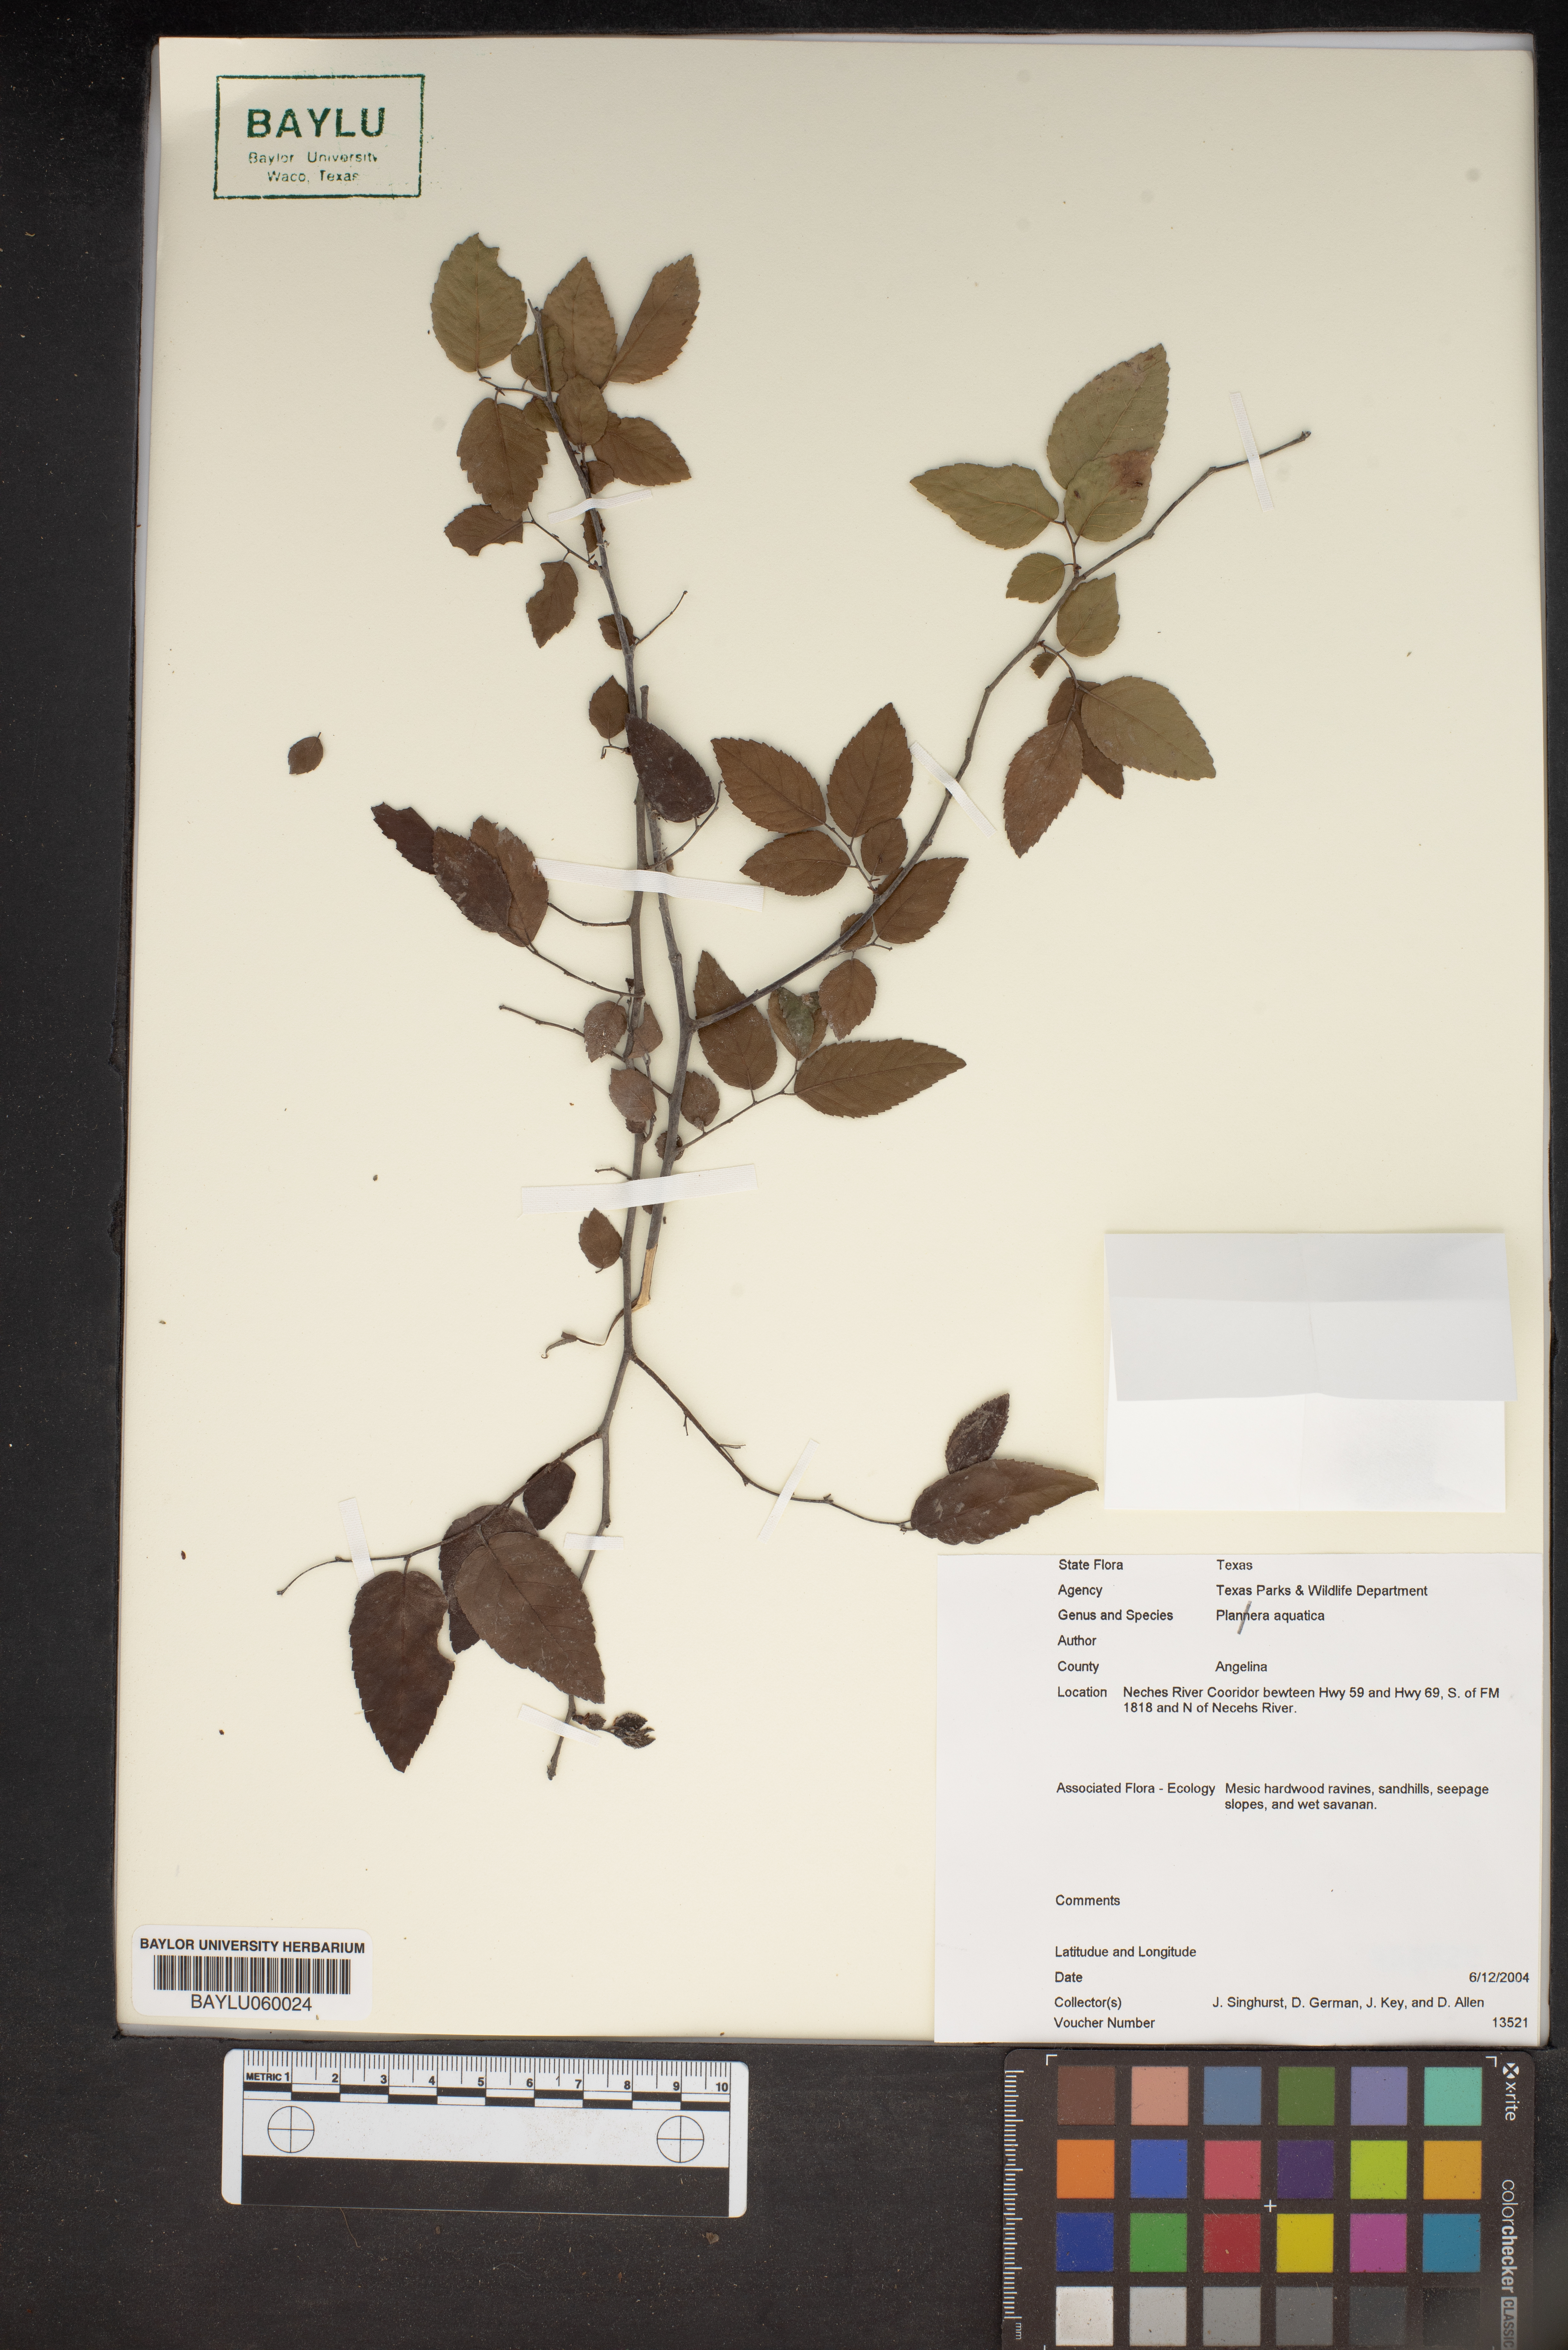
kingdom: Plantae
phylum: Tracheophyta
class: Magnoliopsida
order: Rosales
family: Ulmaceae
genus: Planera
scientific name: Planera aquatica
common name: Water-elm
